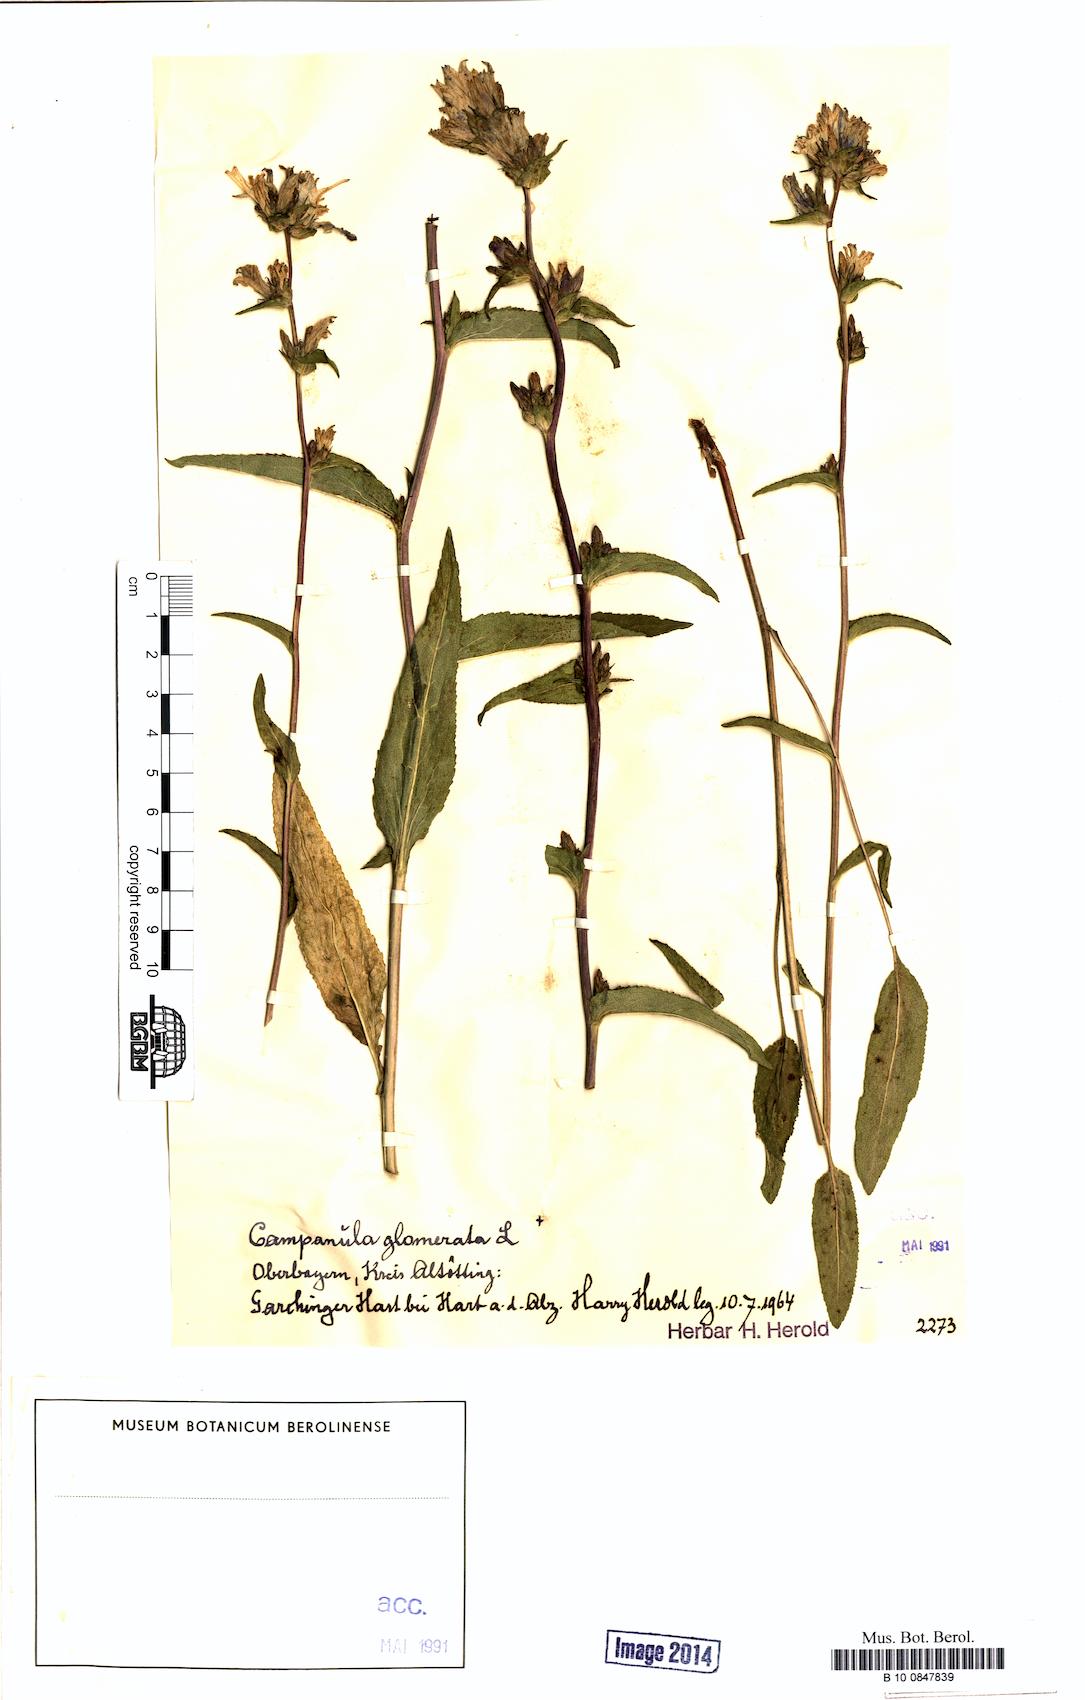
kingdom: Plantae
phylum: Tracheophyta
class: Magnoliopsida
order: Asterales
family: Campanulaceae
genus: Campanula
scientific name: Campanula glomerata
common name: Clustered bellflower
